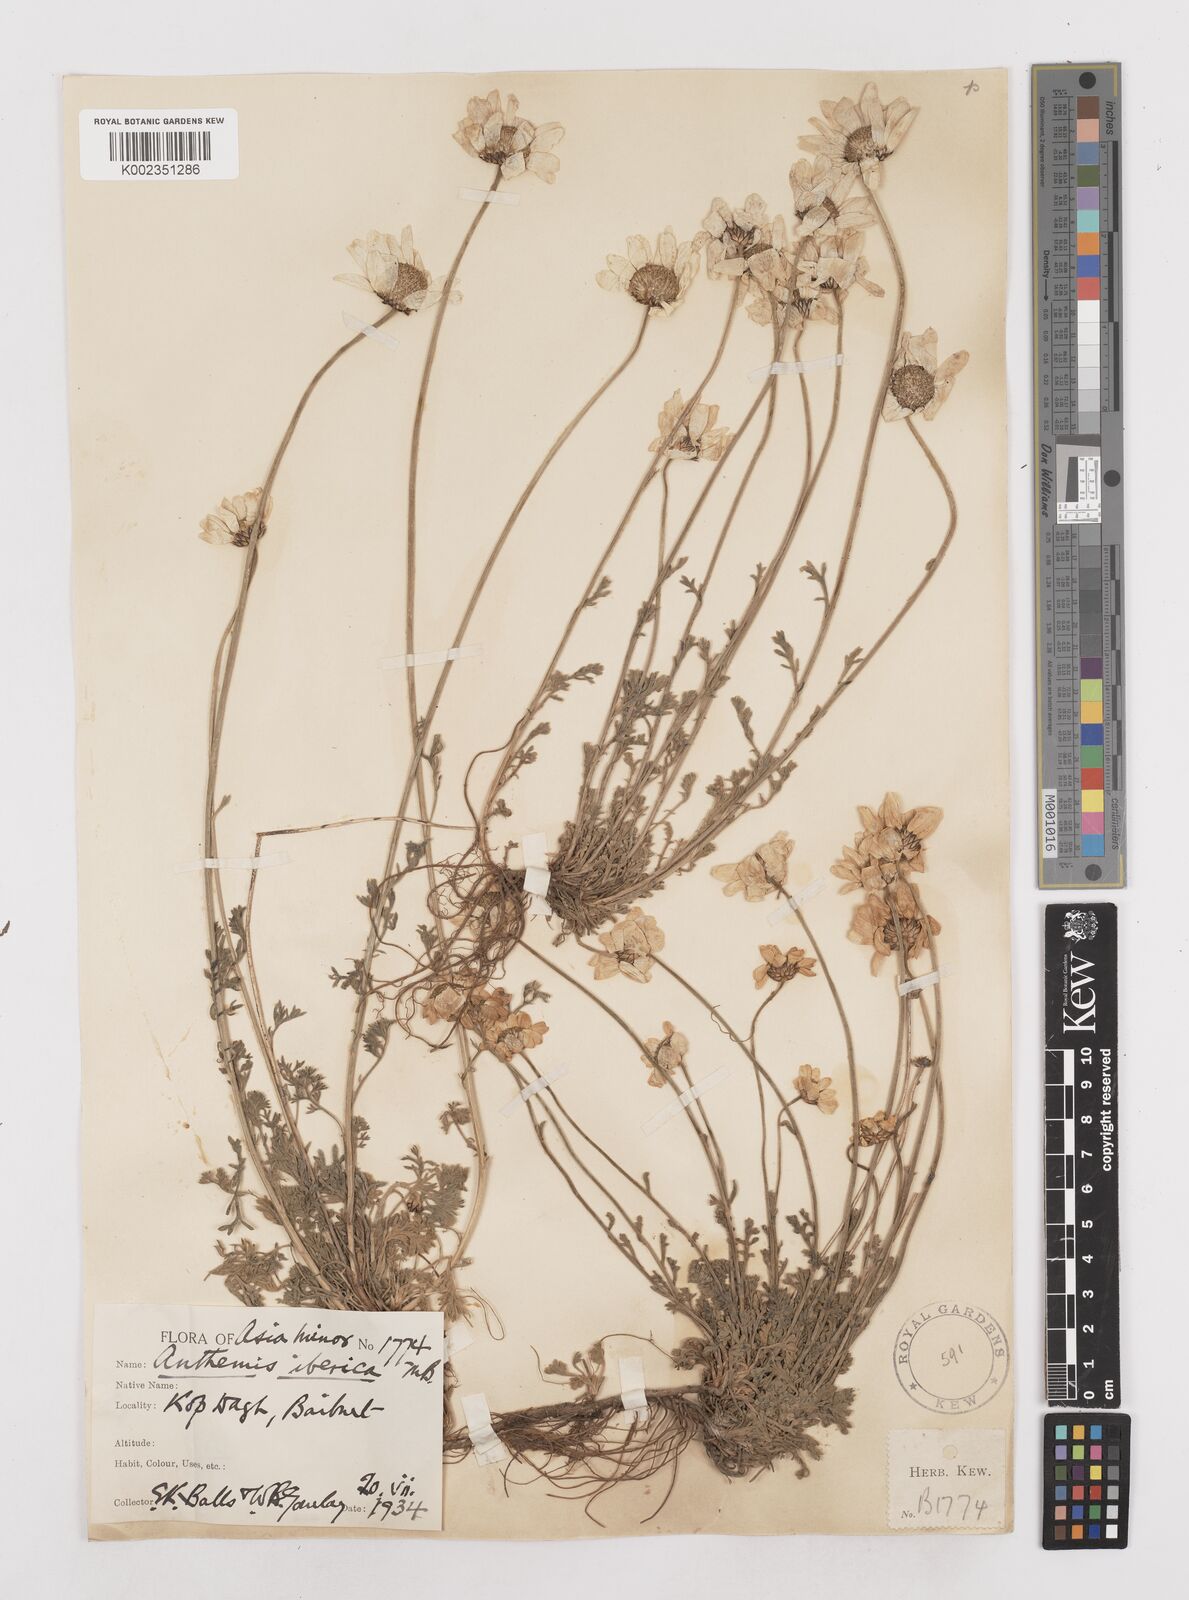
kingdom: Plantae
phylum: Tracheophyta
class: Magnoliopsida
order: Asterales
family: Asteraceae
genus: Anthemis
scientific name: Anthemis cretica
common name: Mountain dog-daisy
